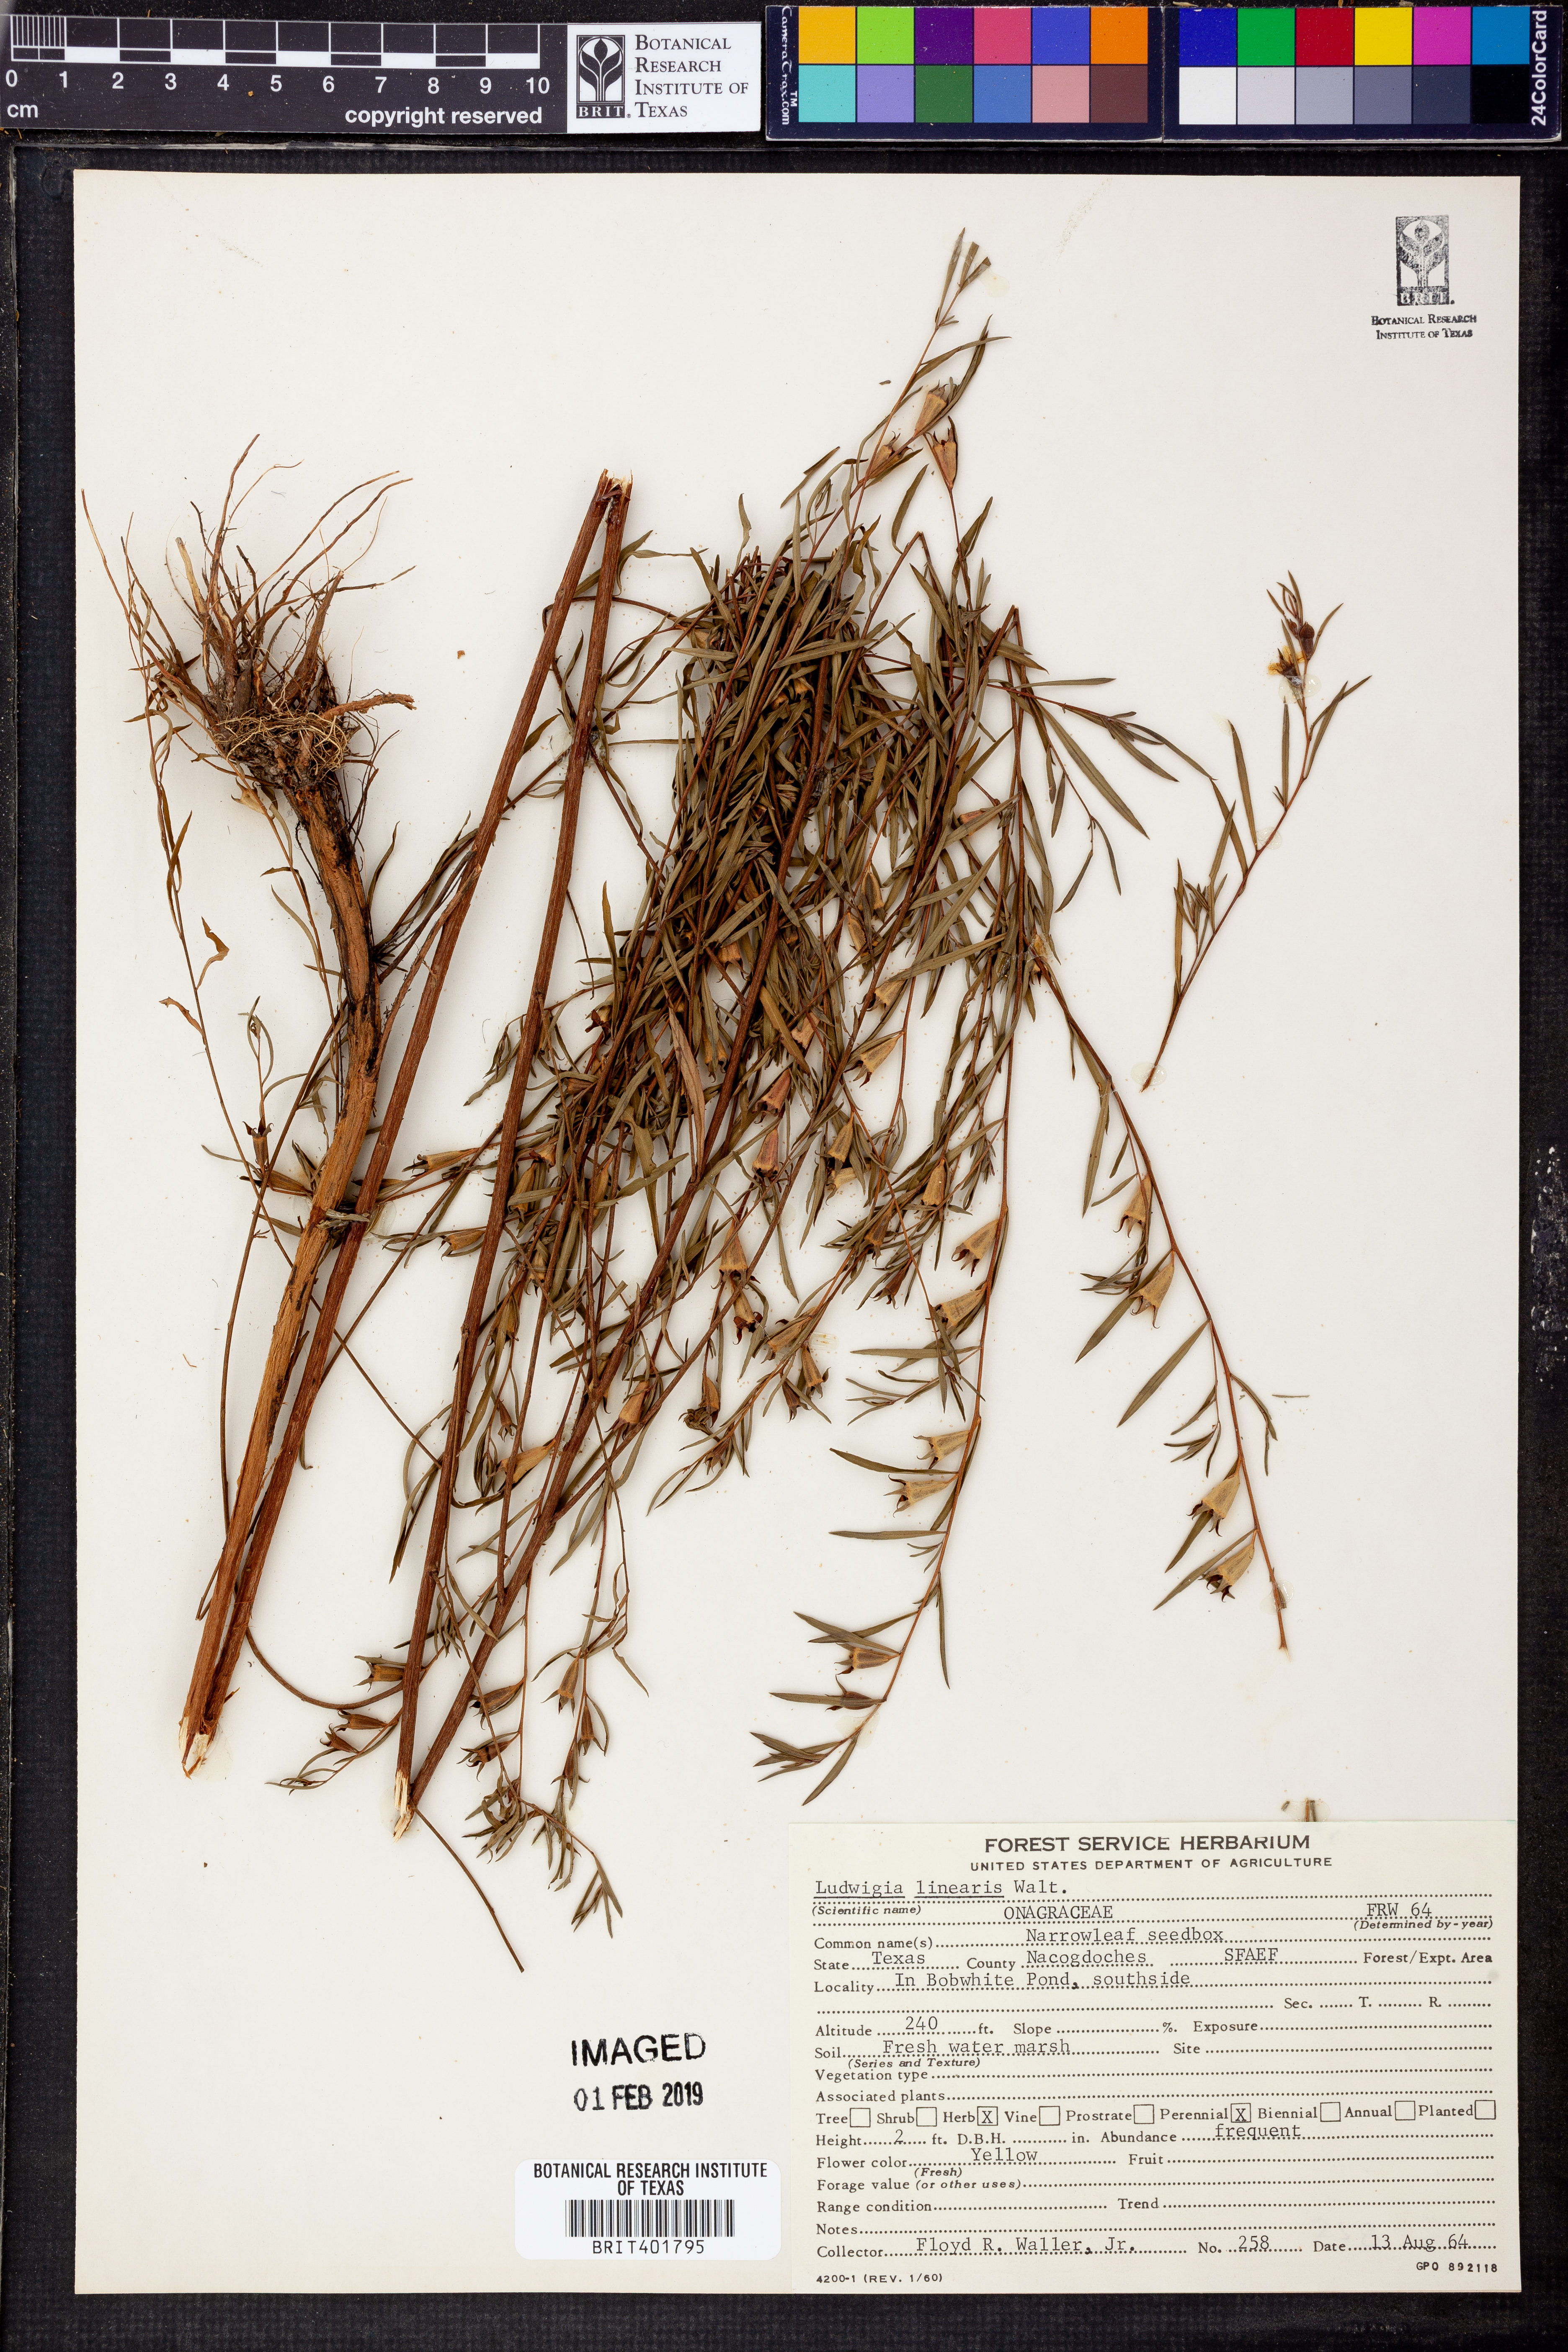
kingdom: Plantae
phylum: Tracheophyta
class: Magnoliopsida
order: Myrtales
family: Onagraceae
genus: Ludwigia
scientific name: Ludwigia linearis
